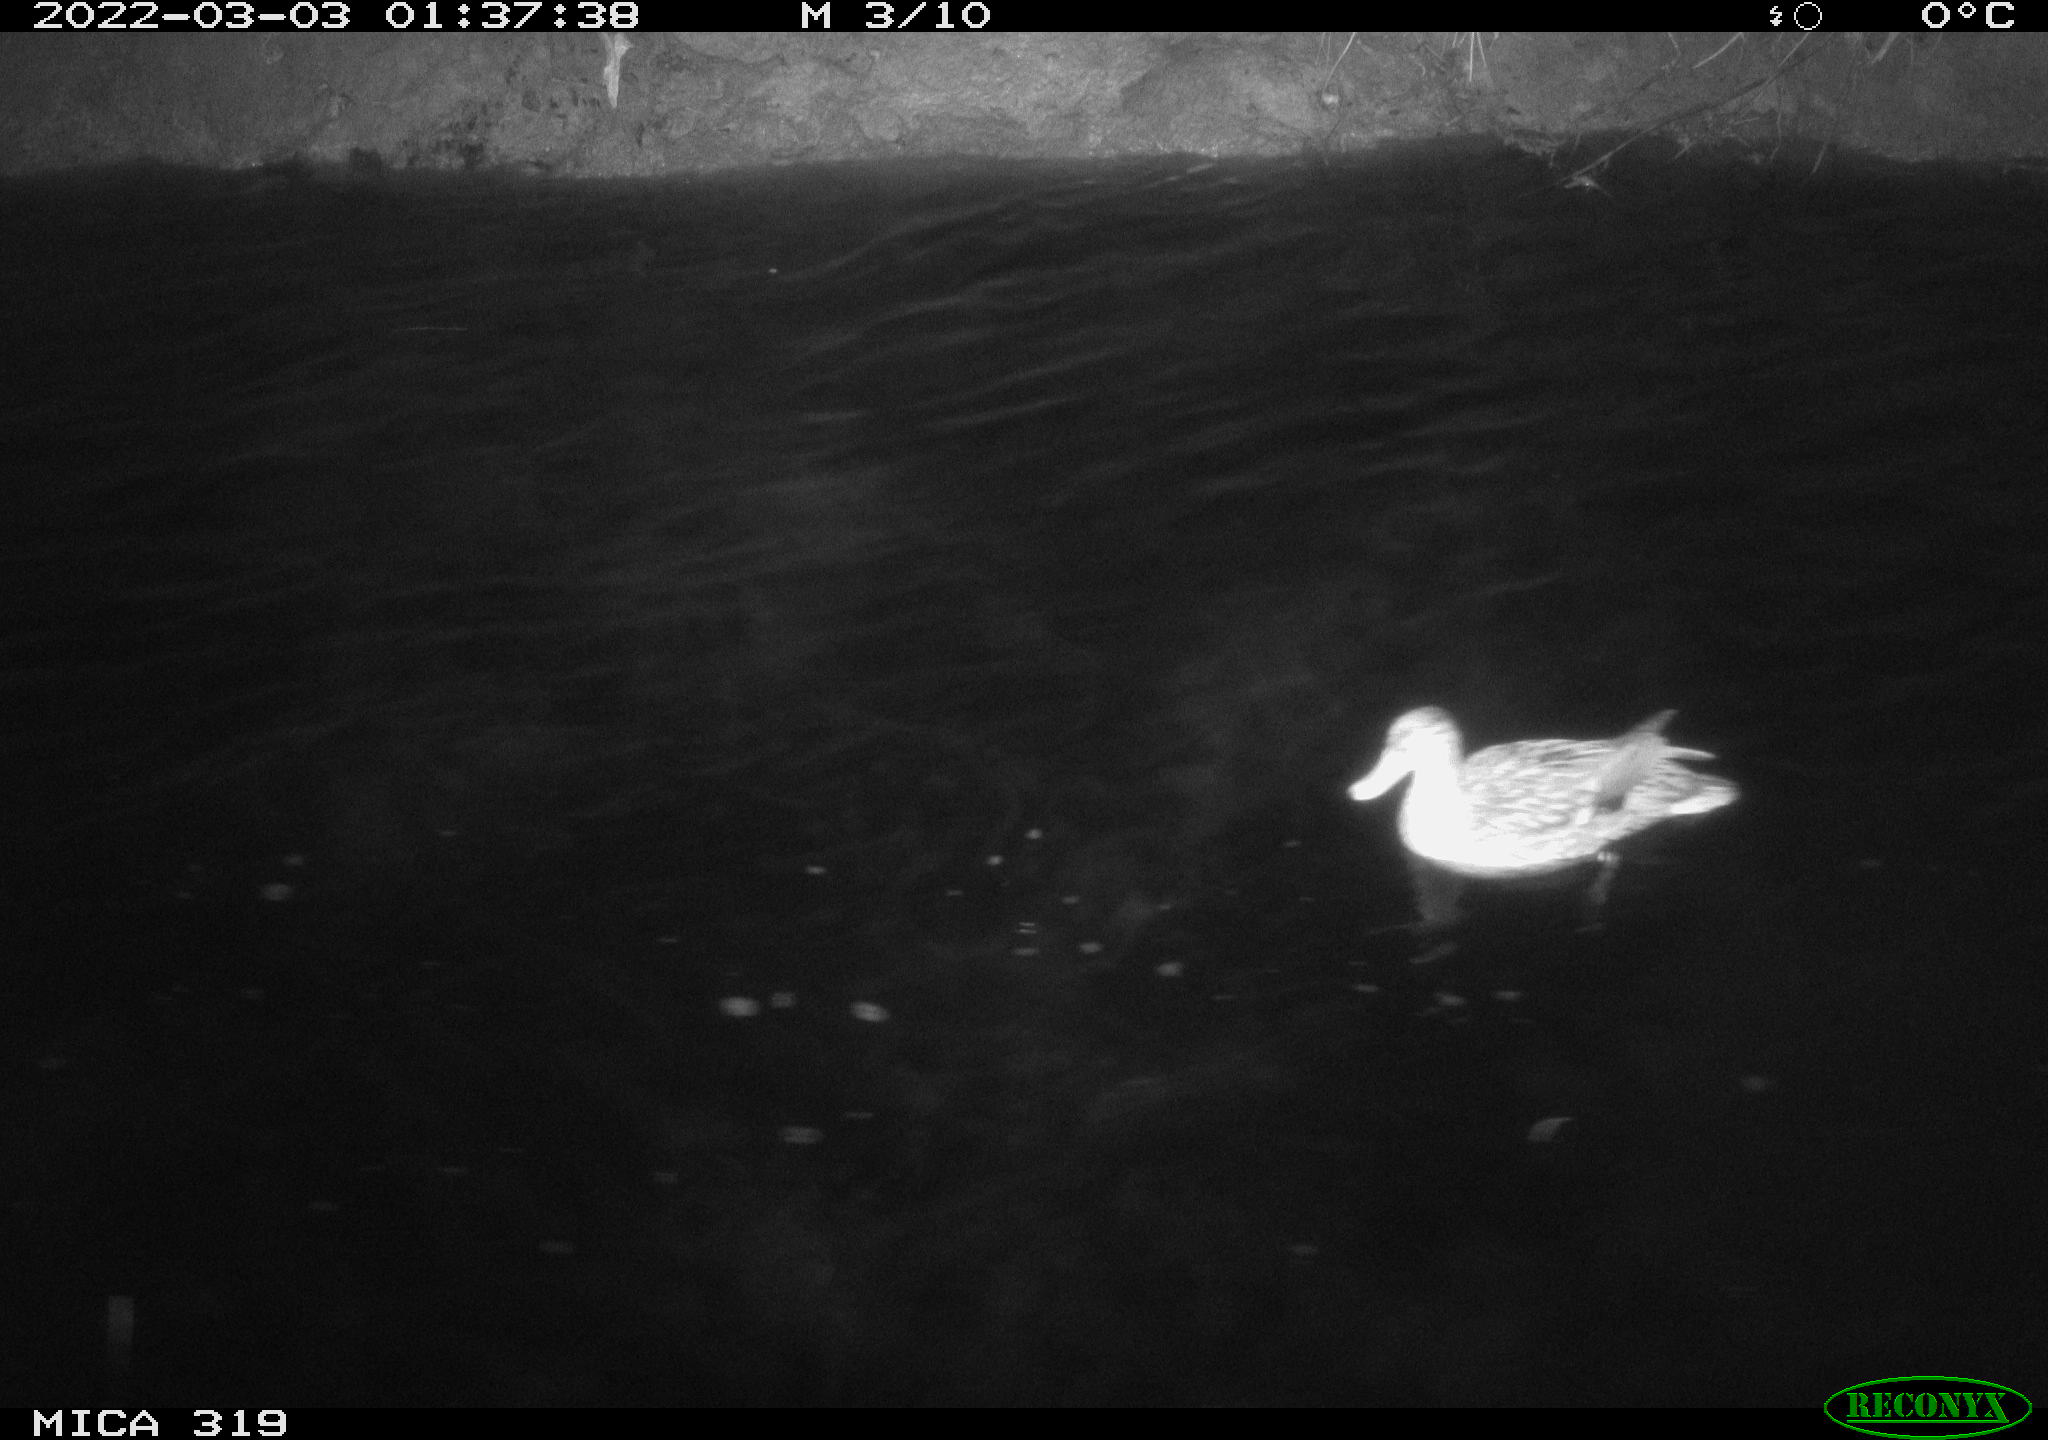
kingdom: Animalia
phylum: Chordata
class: Aves
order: Anseriformes
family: Anatidae
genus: Mareca
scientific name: Mareca strepera
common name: Gadwall
